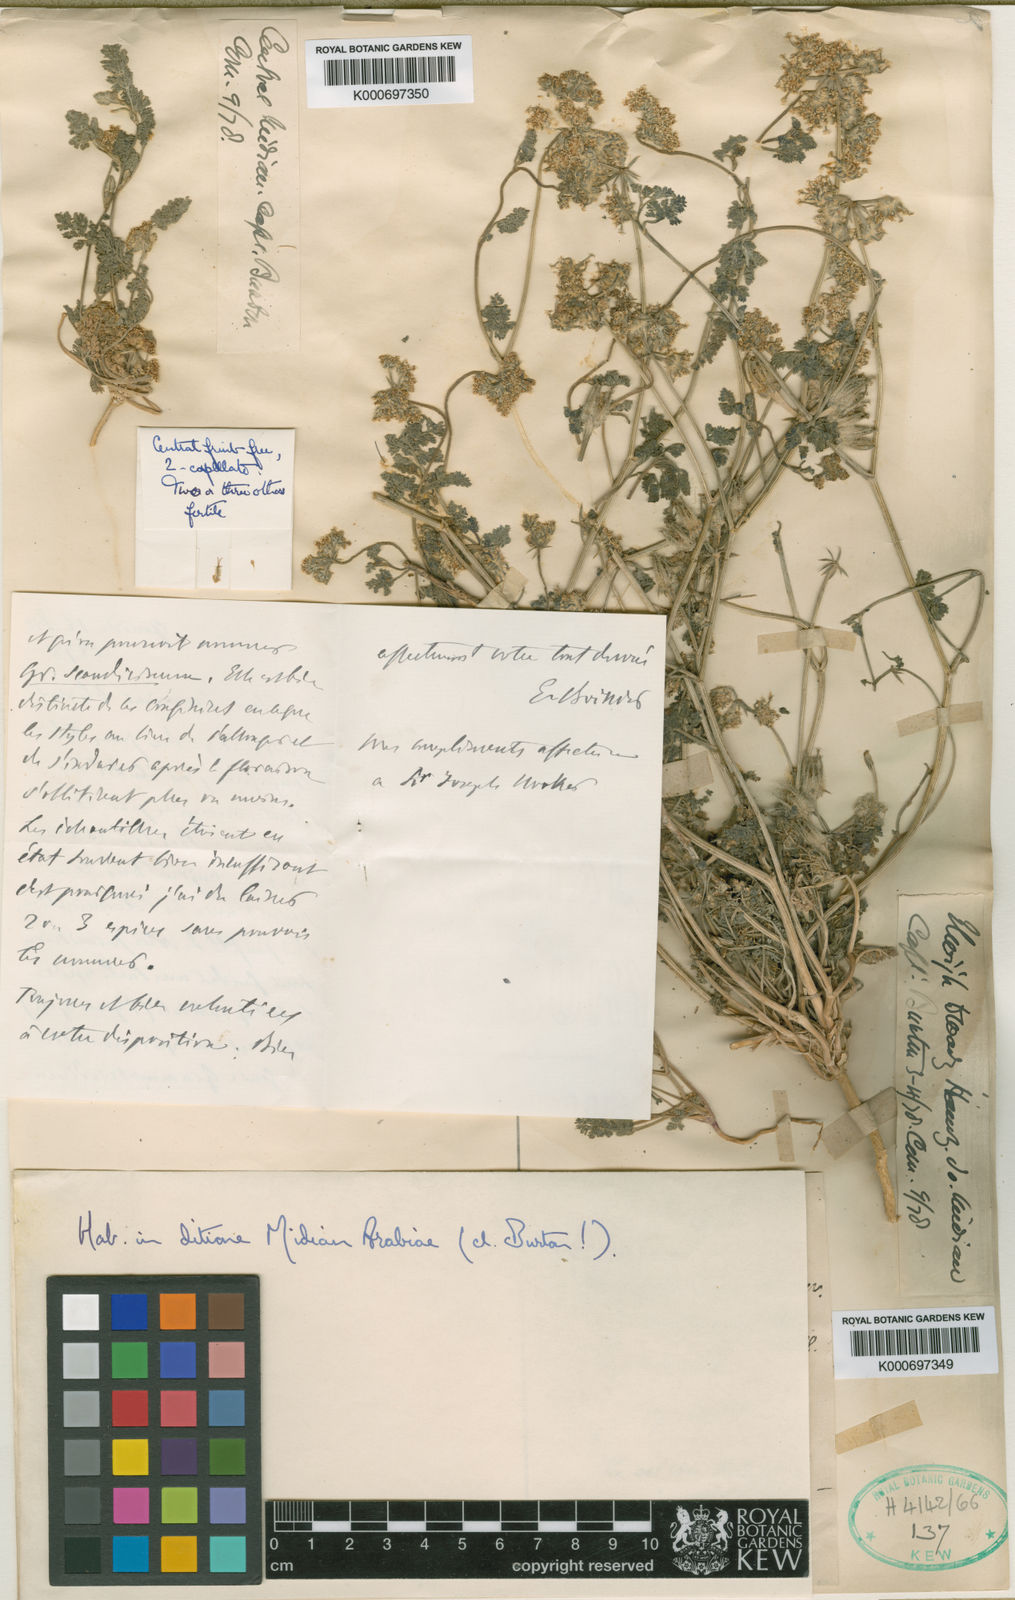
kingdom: Plantae
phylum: Tracheophyta
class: Magnoliopsida
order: Apiales
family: Apiaceae
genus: Anisosciadium
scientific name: Anisosciadium lanatum
